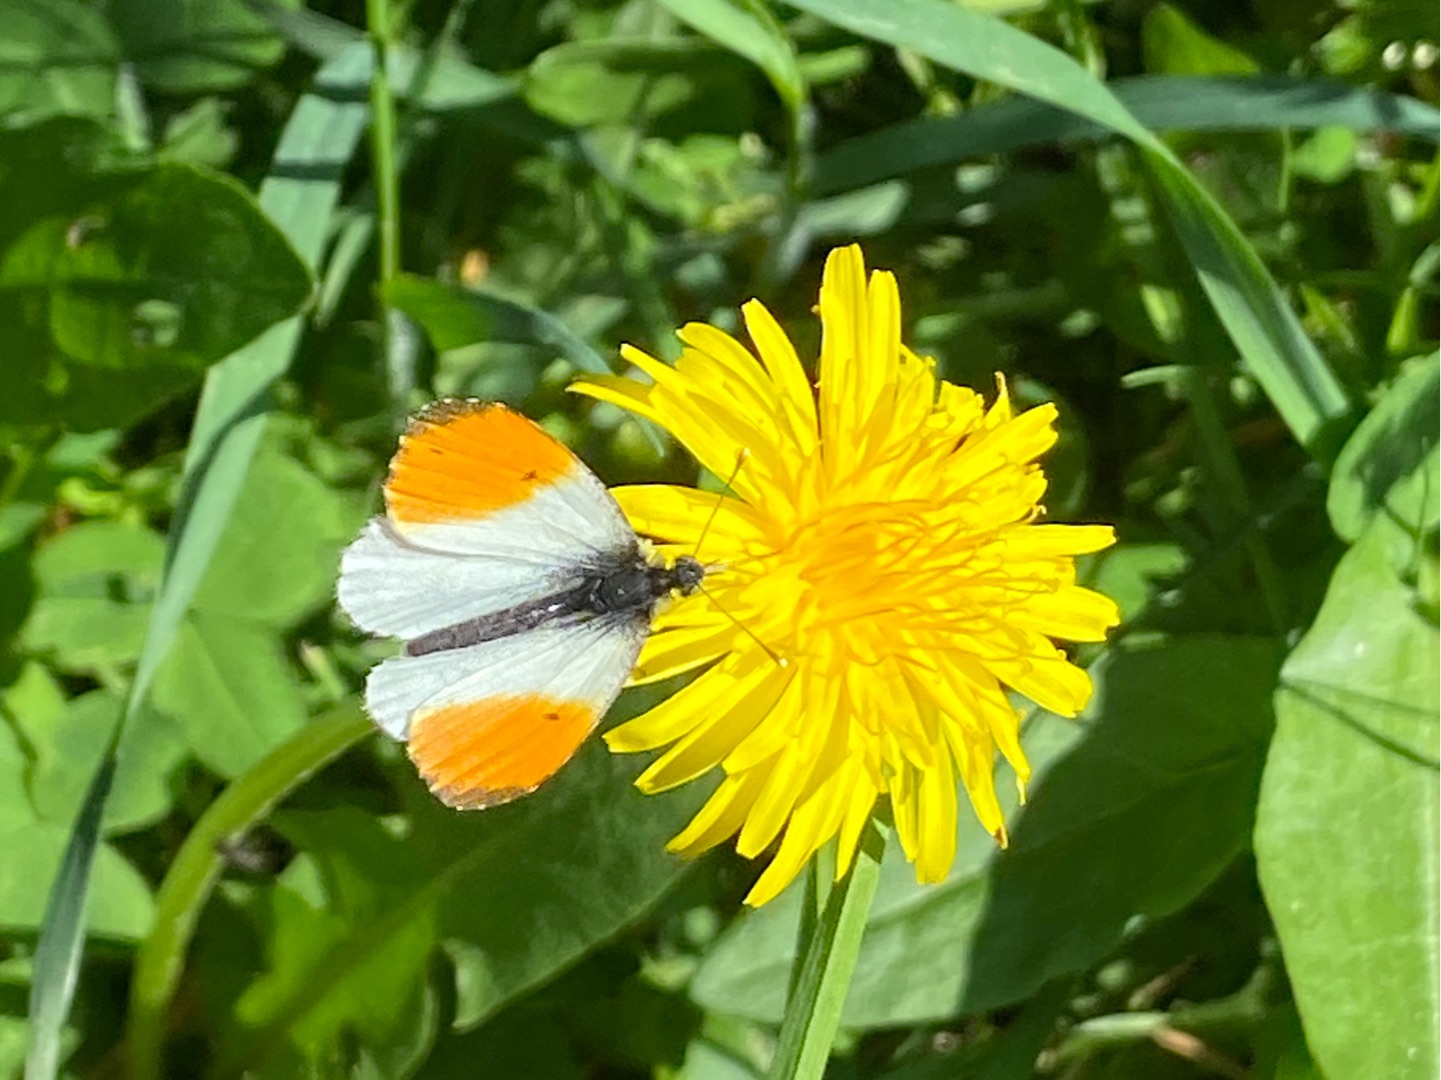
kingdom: Animalia
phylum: Arthropoda
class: Insecta
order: Lepidoptera
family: Pieridae
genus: Anthocharis
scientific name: Anthocharis cardamines
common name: Aurora
